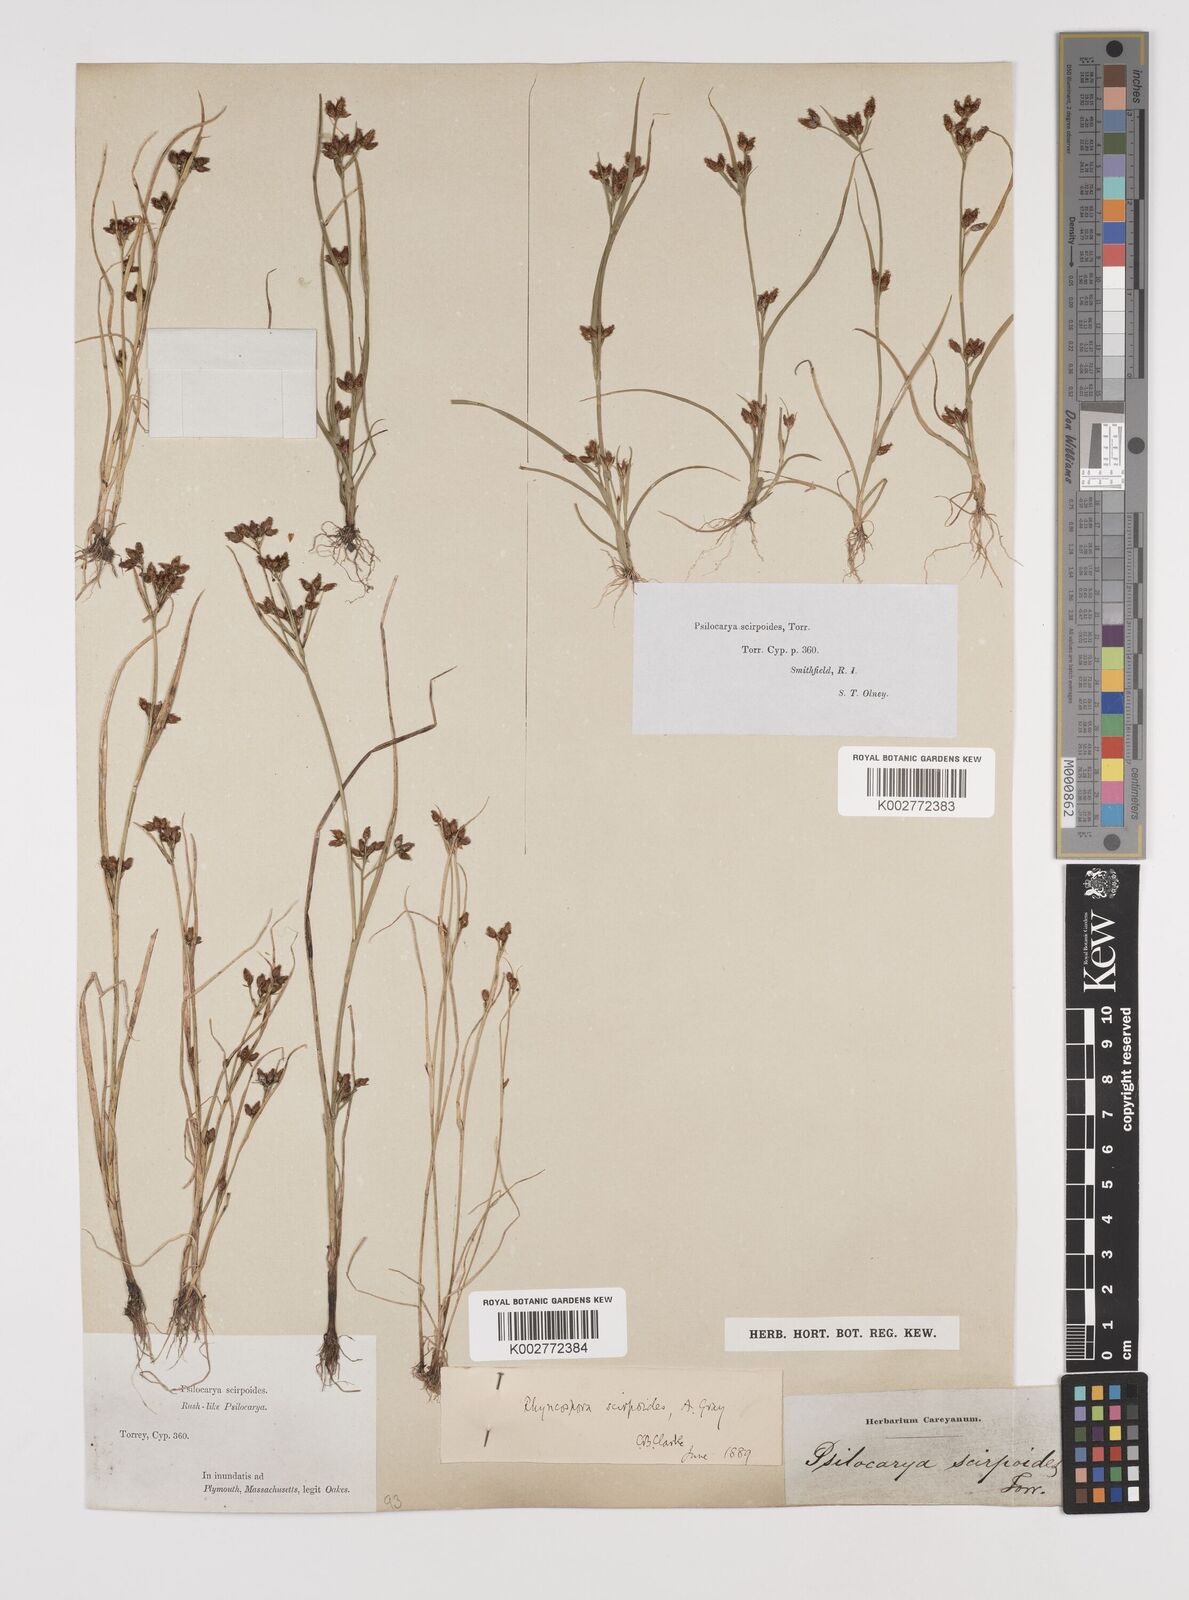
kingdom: Plantae
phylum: Tracheophyta
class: Liliopsida
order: Poales
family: Cyperaceae
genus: Rhynchospora
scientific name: Rhynchospora scirpoides
